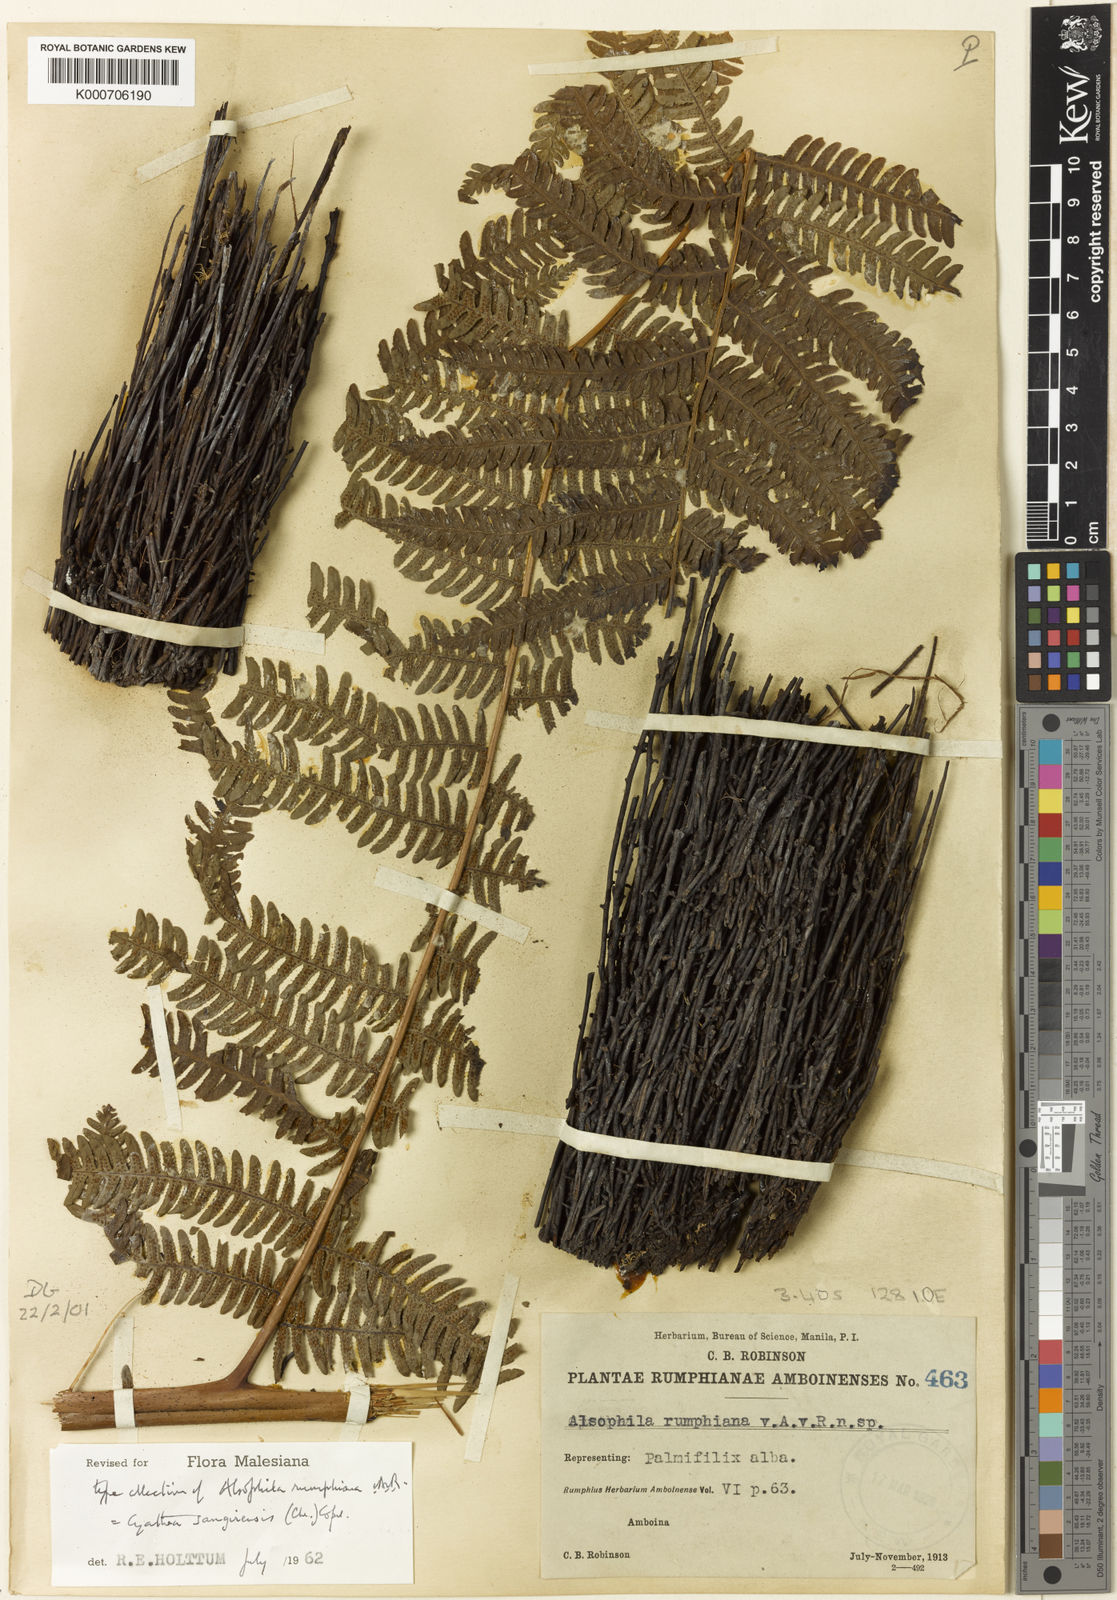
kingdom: Plantae
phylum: Tracheophyta
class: Polypodiopsida
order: Cyatheales
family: Cyatheaceae
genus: Sphaeropteris
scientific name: Sphaeropteris felina
